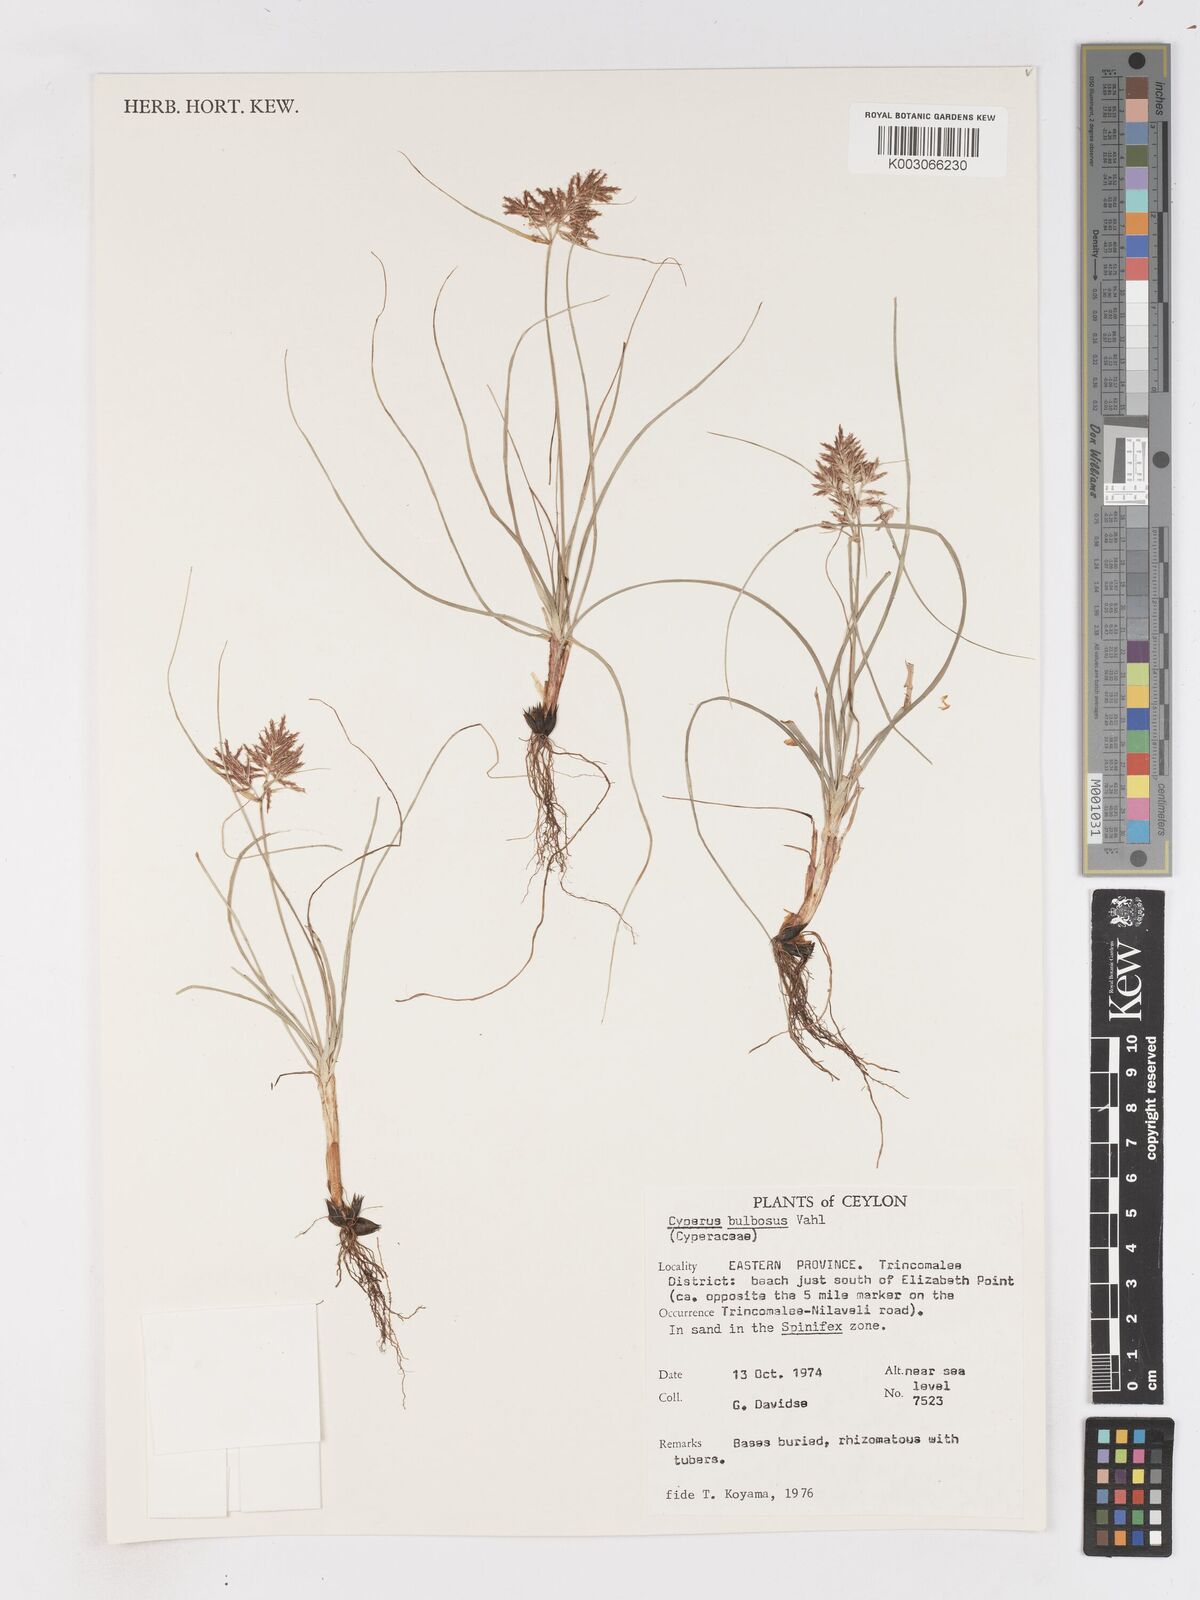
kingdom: Plantae
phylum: Tracheophyta
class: Liliopsida
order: Poales
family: Cyperaceae
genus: Cyperus
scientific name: Cyperus bulbosus
